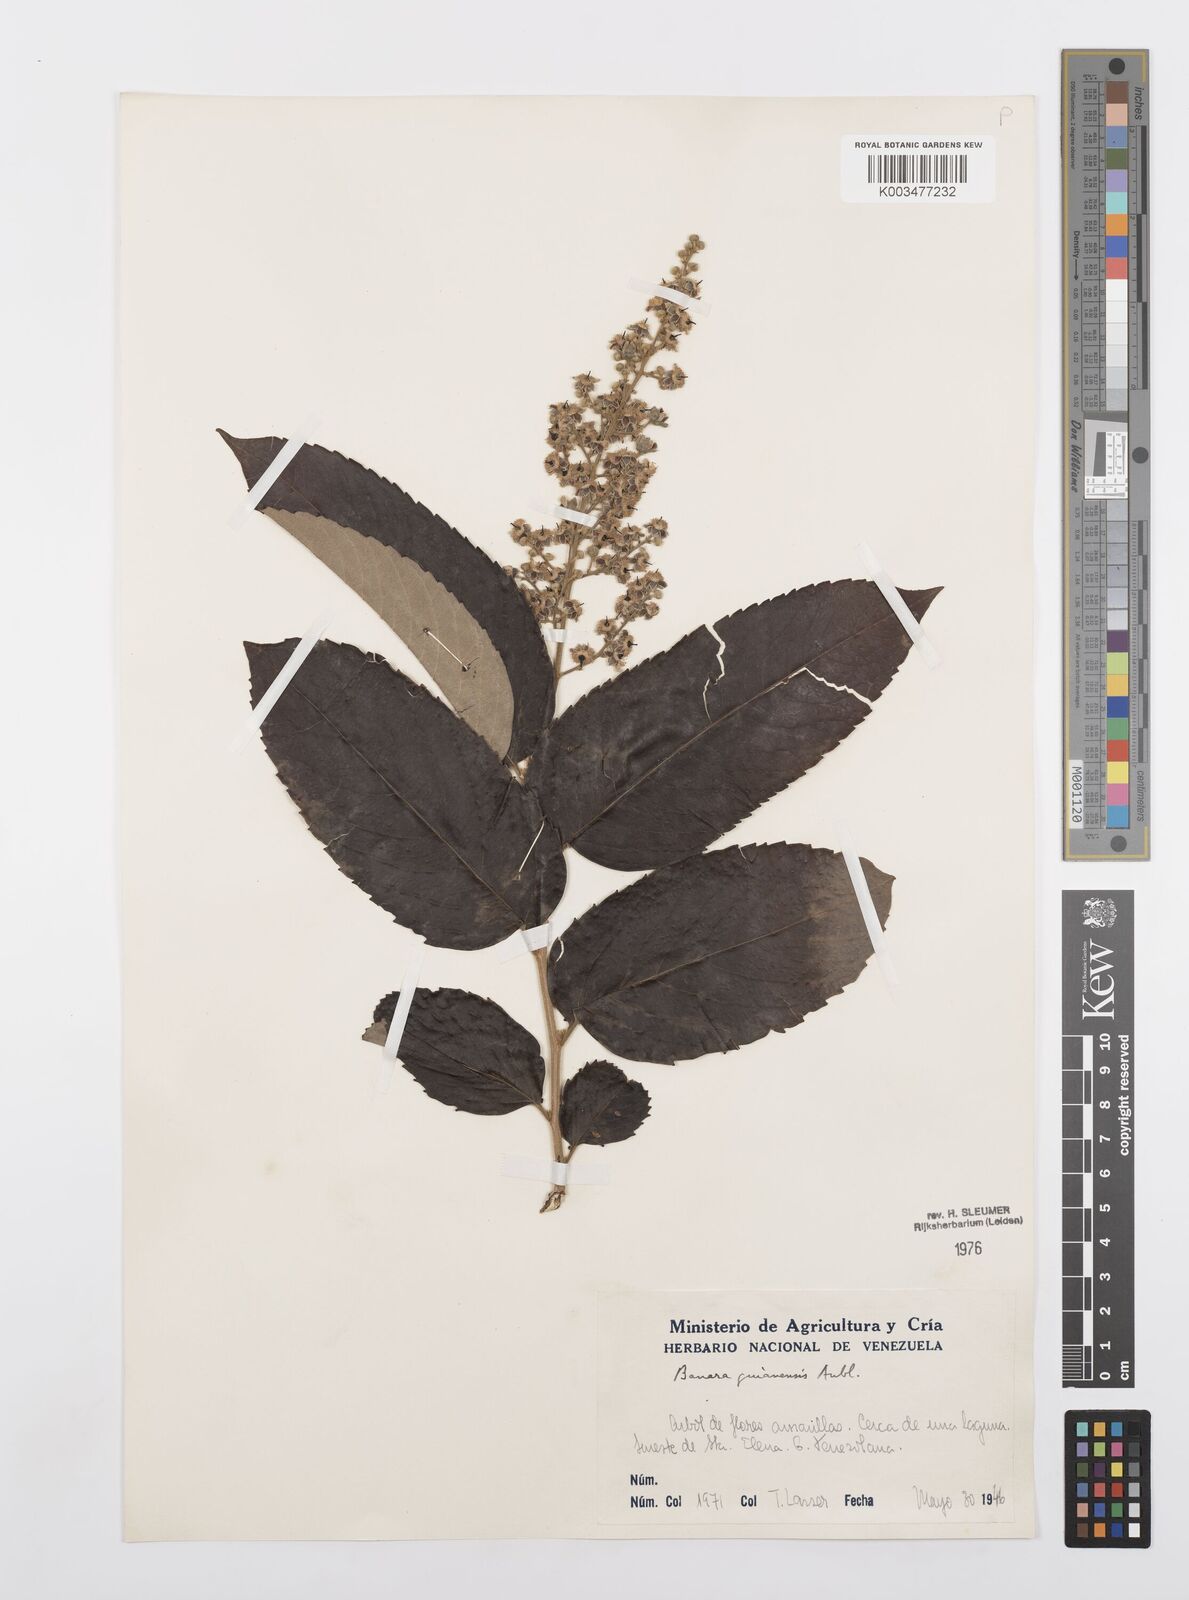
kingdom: Plantae
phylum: Tracheophyta
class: Magnoliopsida
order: Malpighiales
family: Salicaceae
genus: Banara
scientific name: Banara guianensis
